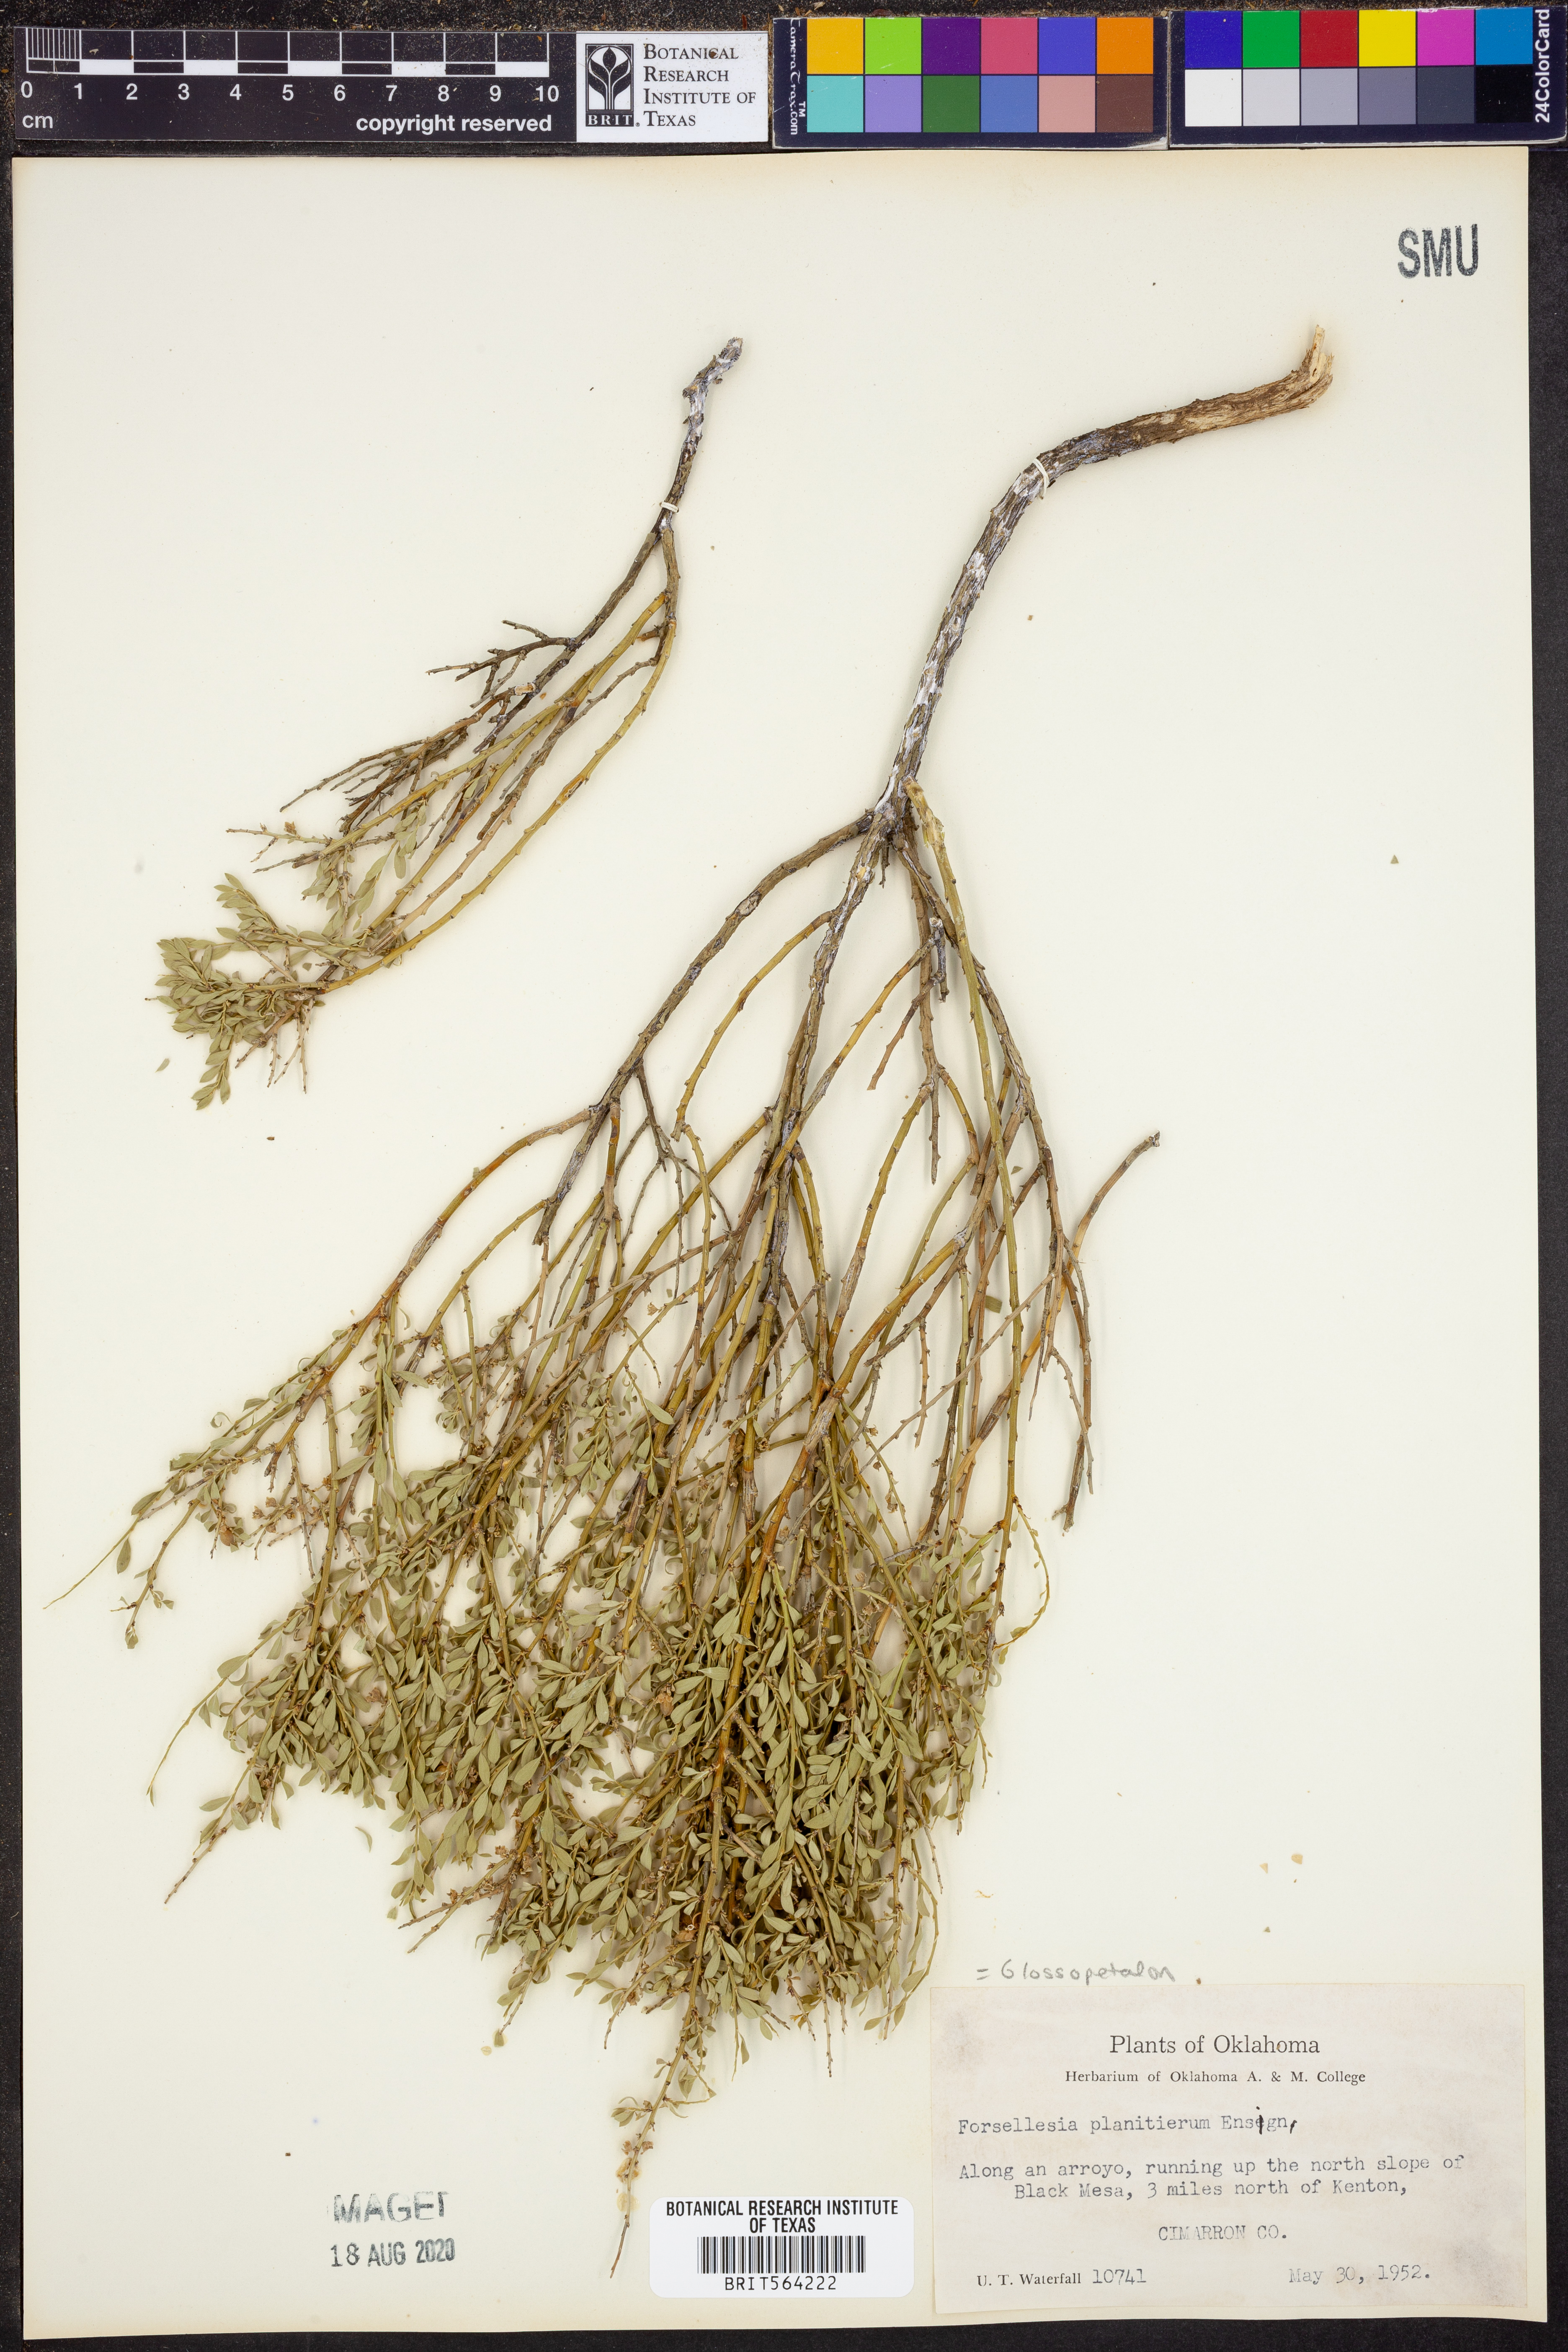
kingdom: Plantae
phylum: Tracheophyta
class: Magnoliopsida
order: Crossosomatales
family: Crossosomataceae
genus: Glossopetalon
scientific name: Glossopetalon spinescens
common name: Spring greasebush
